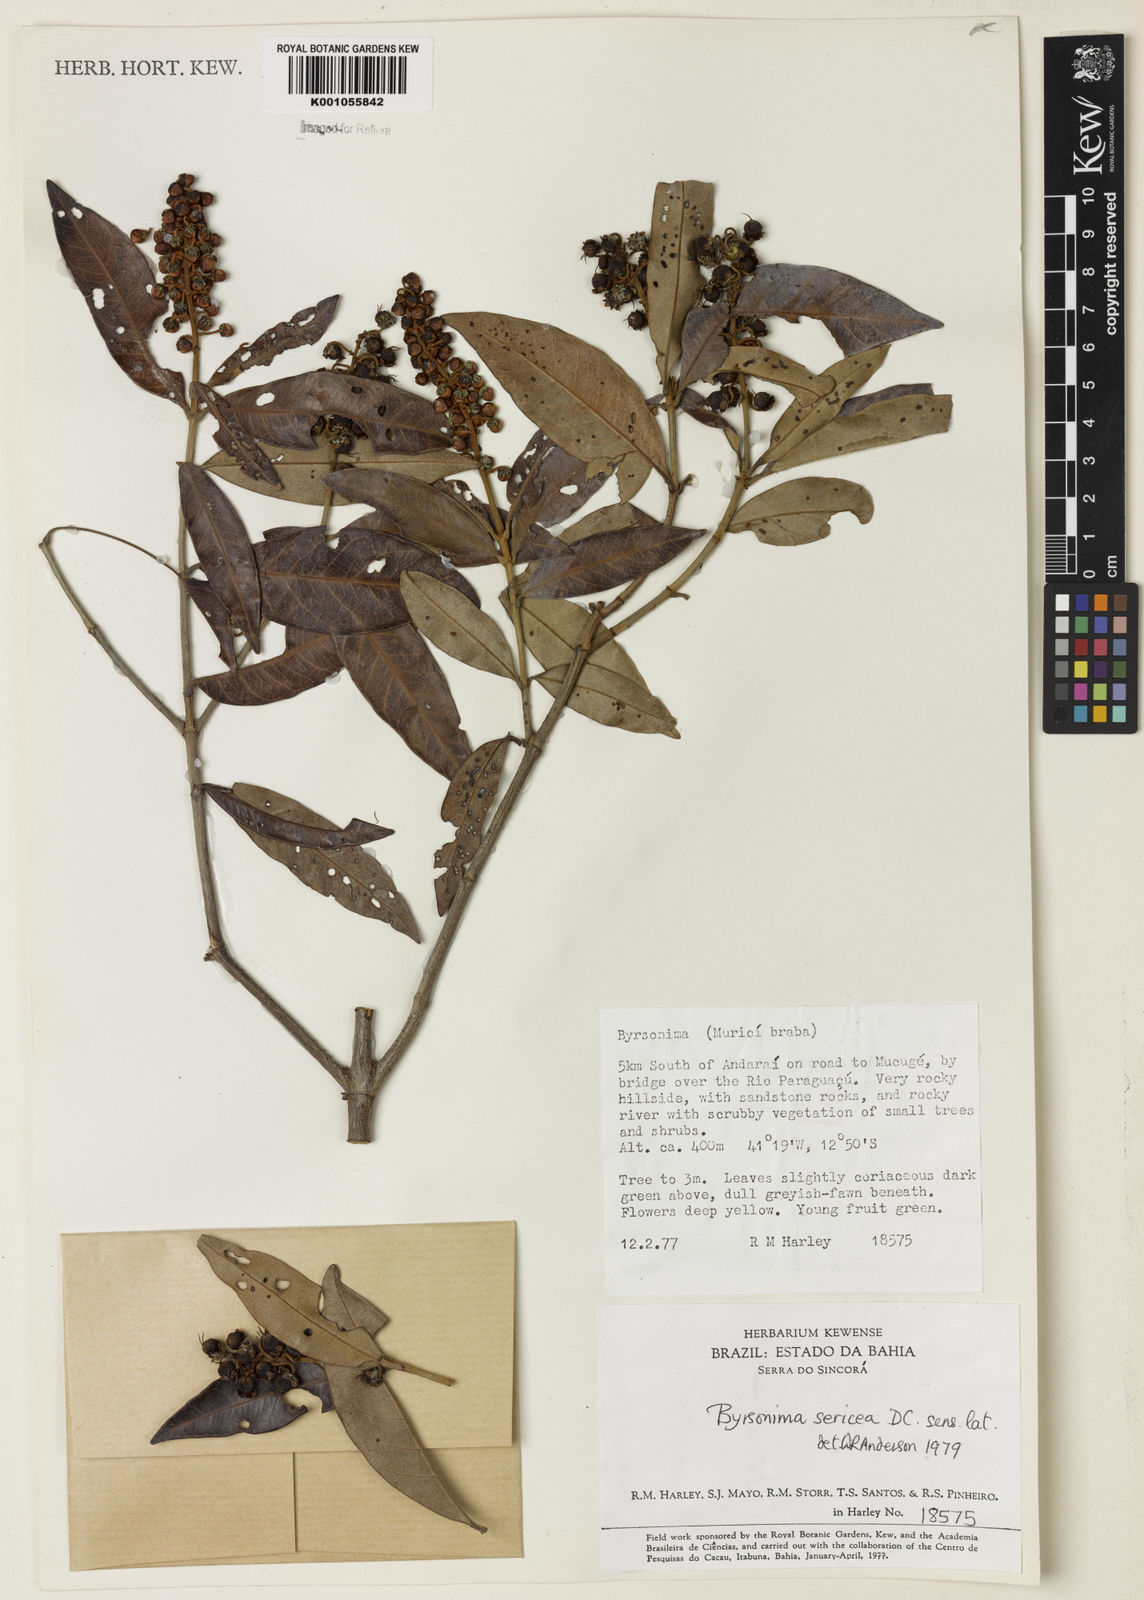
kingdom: Plantae
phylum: Tracheophyta
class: Magnoliopsida
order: Malpighiales
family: Malpighiaceae
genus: Byrsonima
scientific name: Byrsonima sericea
